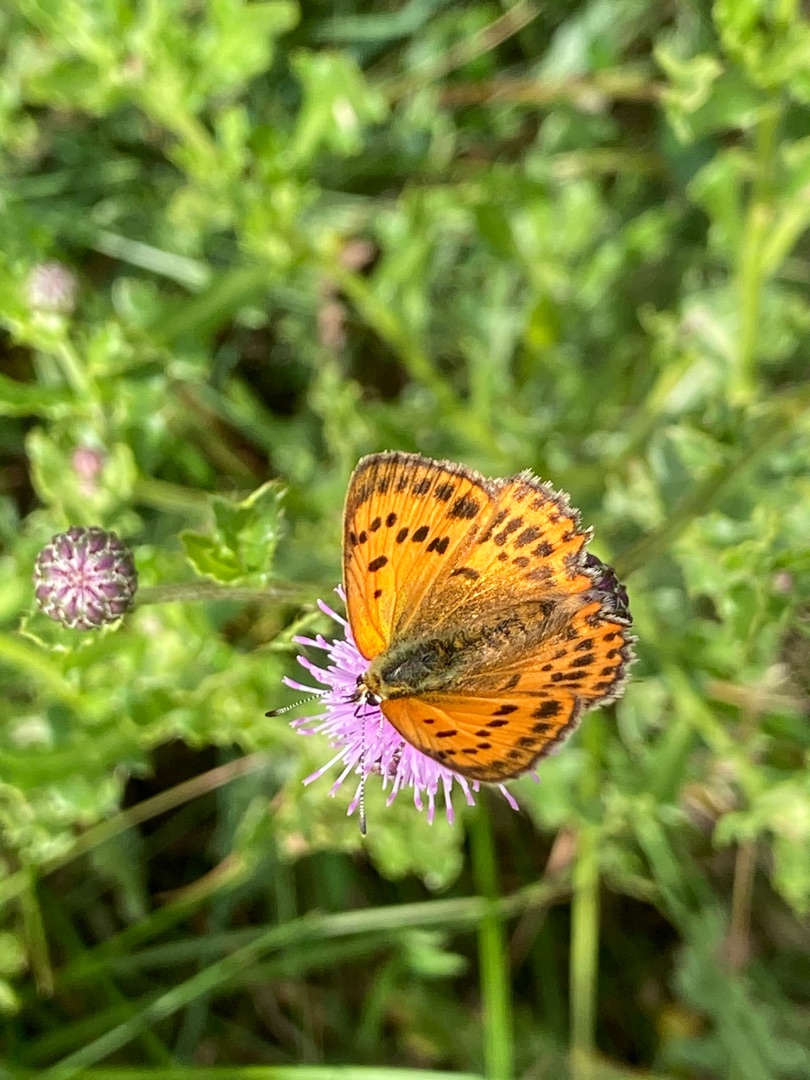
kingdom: Animalia
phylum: Arthropoda
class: Insecta
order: Lepidoptera
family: Lycaenidae
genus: Lycaena
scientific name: Lycaena virgaureae
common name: Dukatsommerfugl
